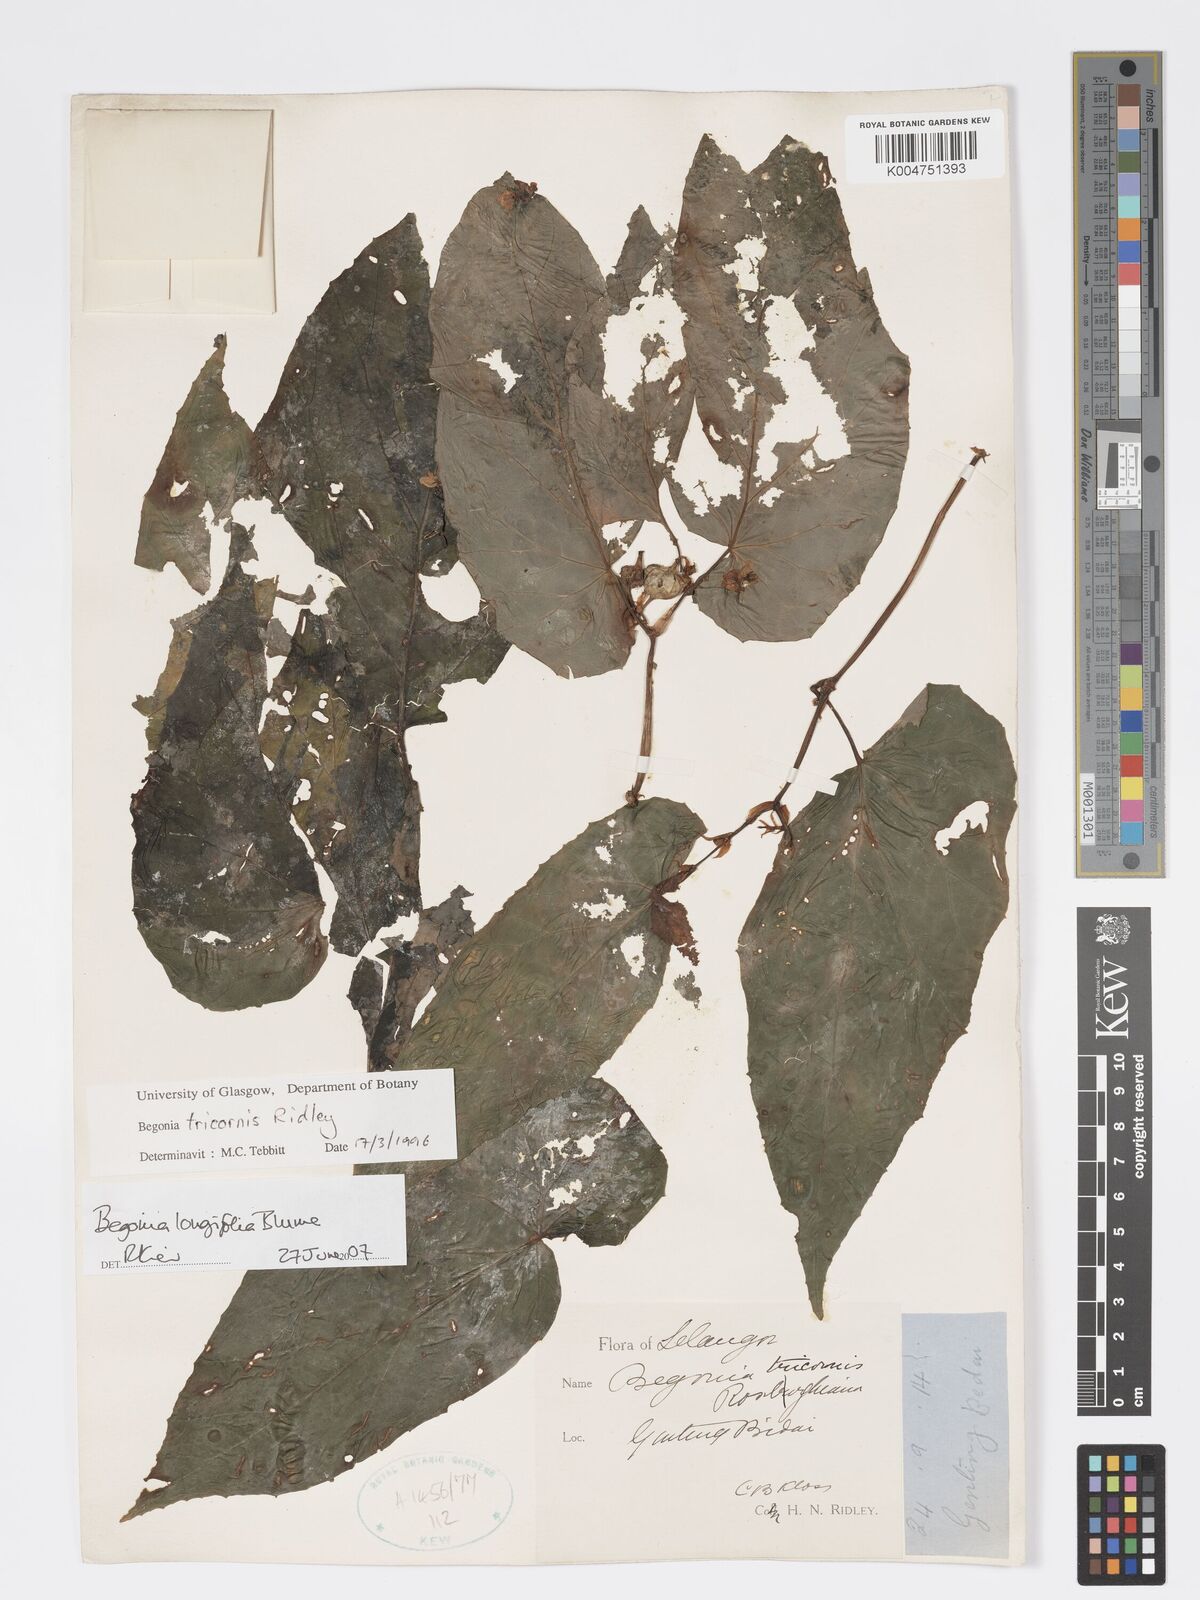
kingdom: Plantae
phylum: Tracheophyta
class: Magnoliopsida
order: Cucurbitales
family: Begoniaceae
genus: Begonia
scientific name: Begonia longifolia
